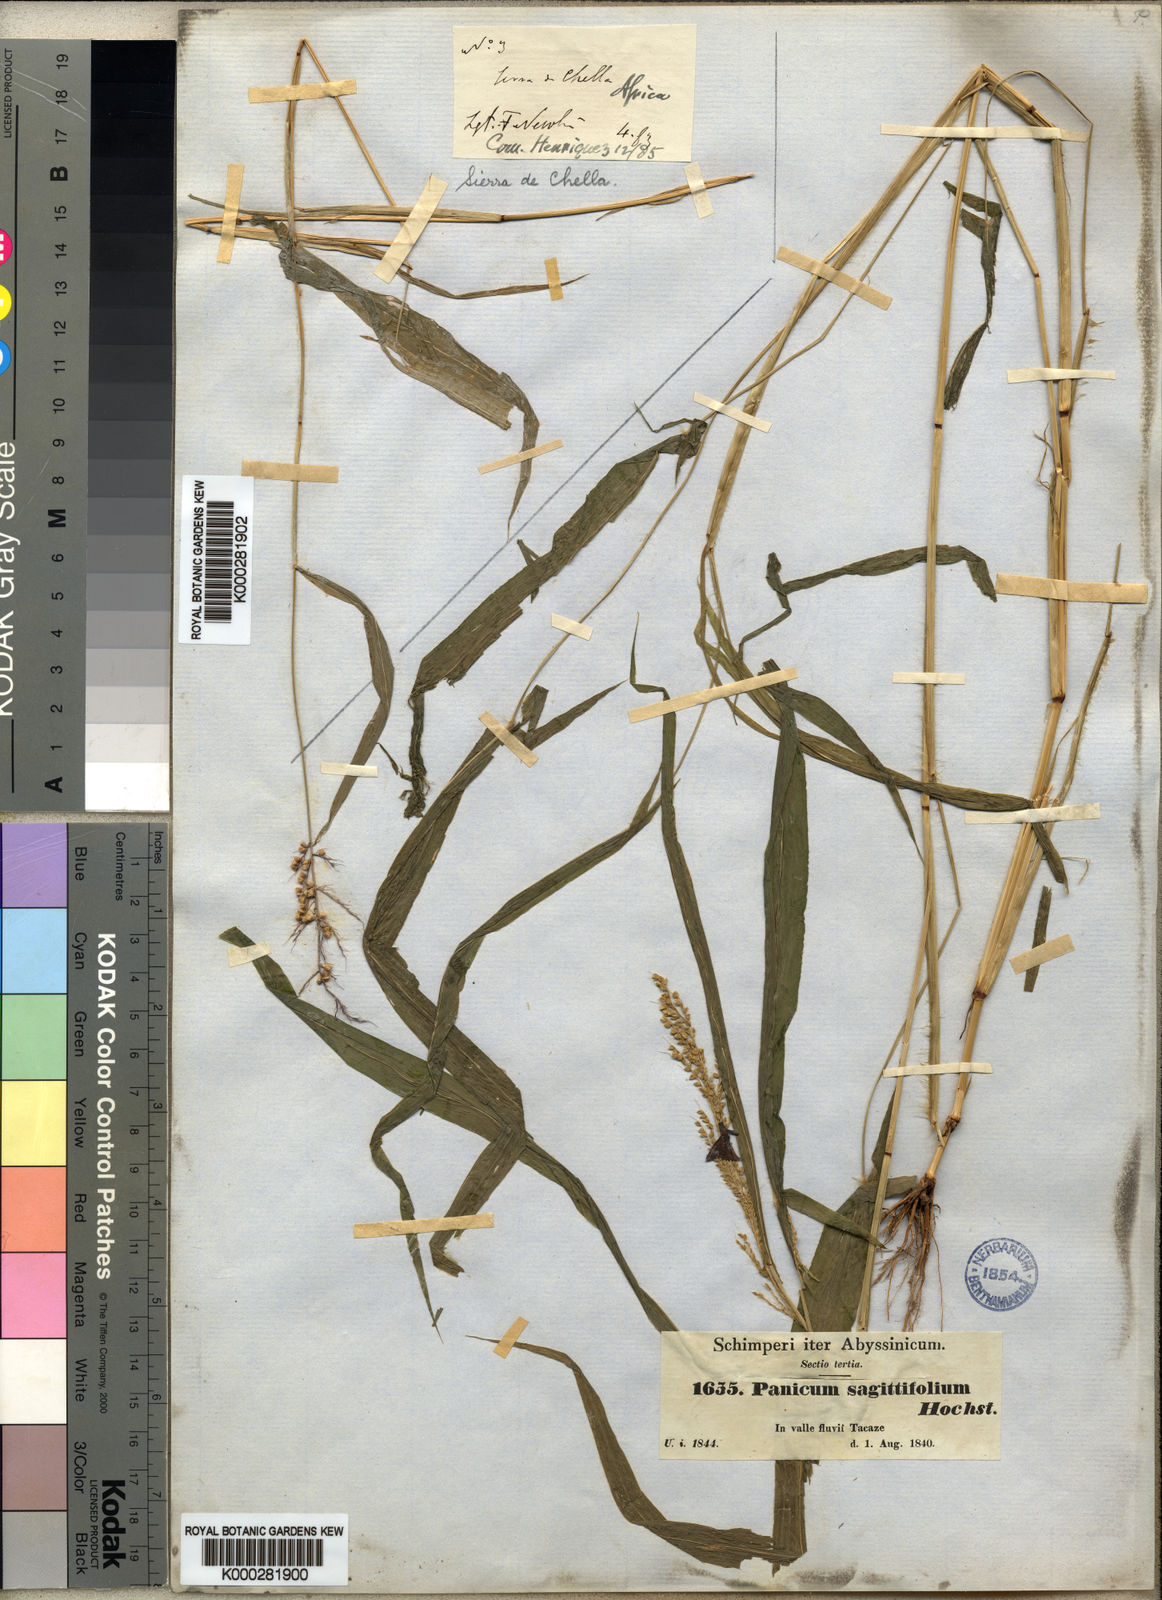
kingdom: Plantae
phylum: Tracheophyta
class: Liliopsida
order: Poales
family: Poaceae
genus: Setaria
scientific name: Setaria sagittifolia
